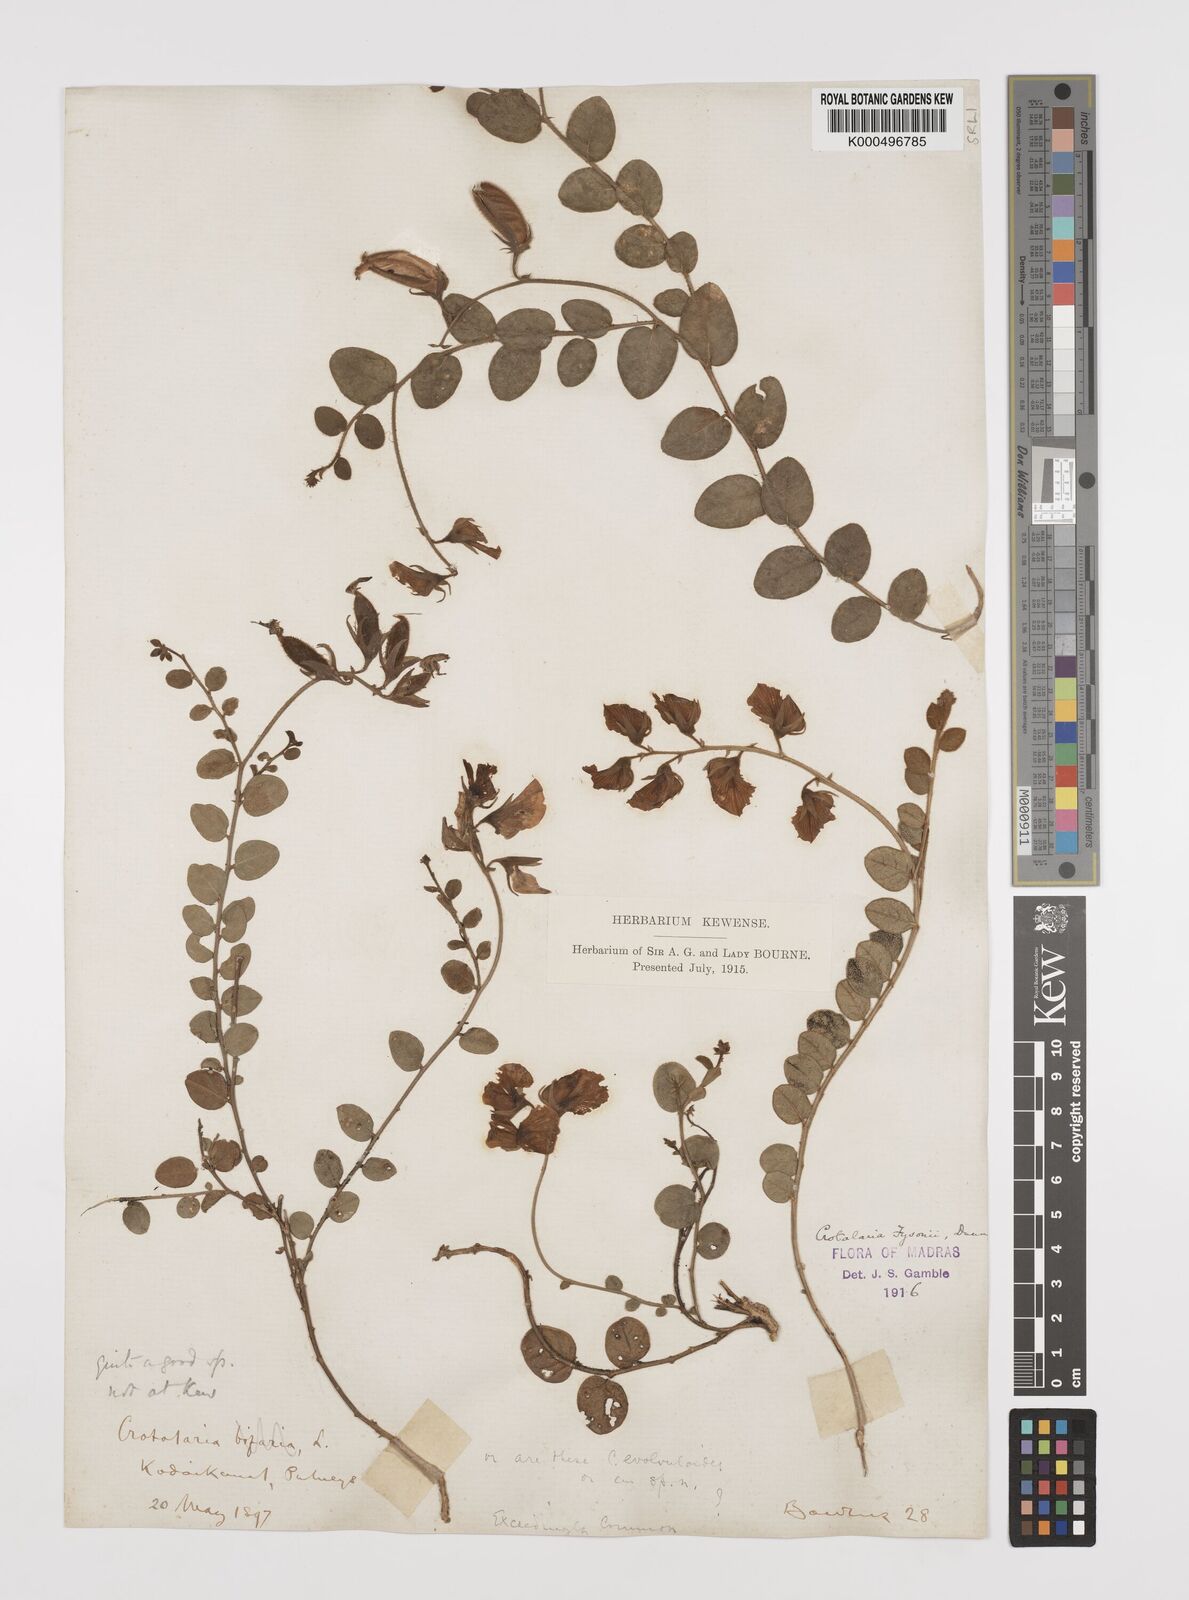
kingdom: Plantae
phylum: Tracheophyta
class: Magnoliopsida
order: Fabales
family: Fabaceae
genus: Crotalaria
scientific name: Crotalaria fysonii
